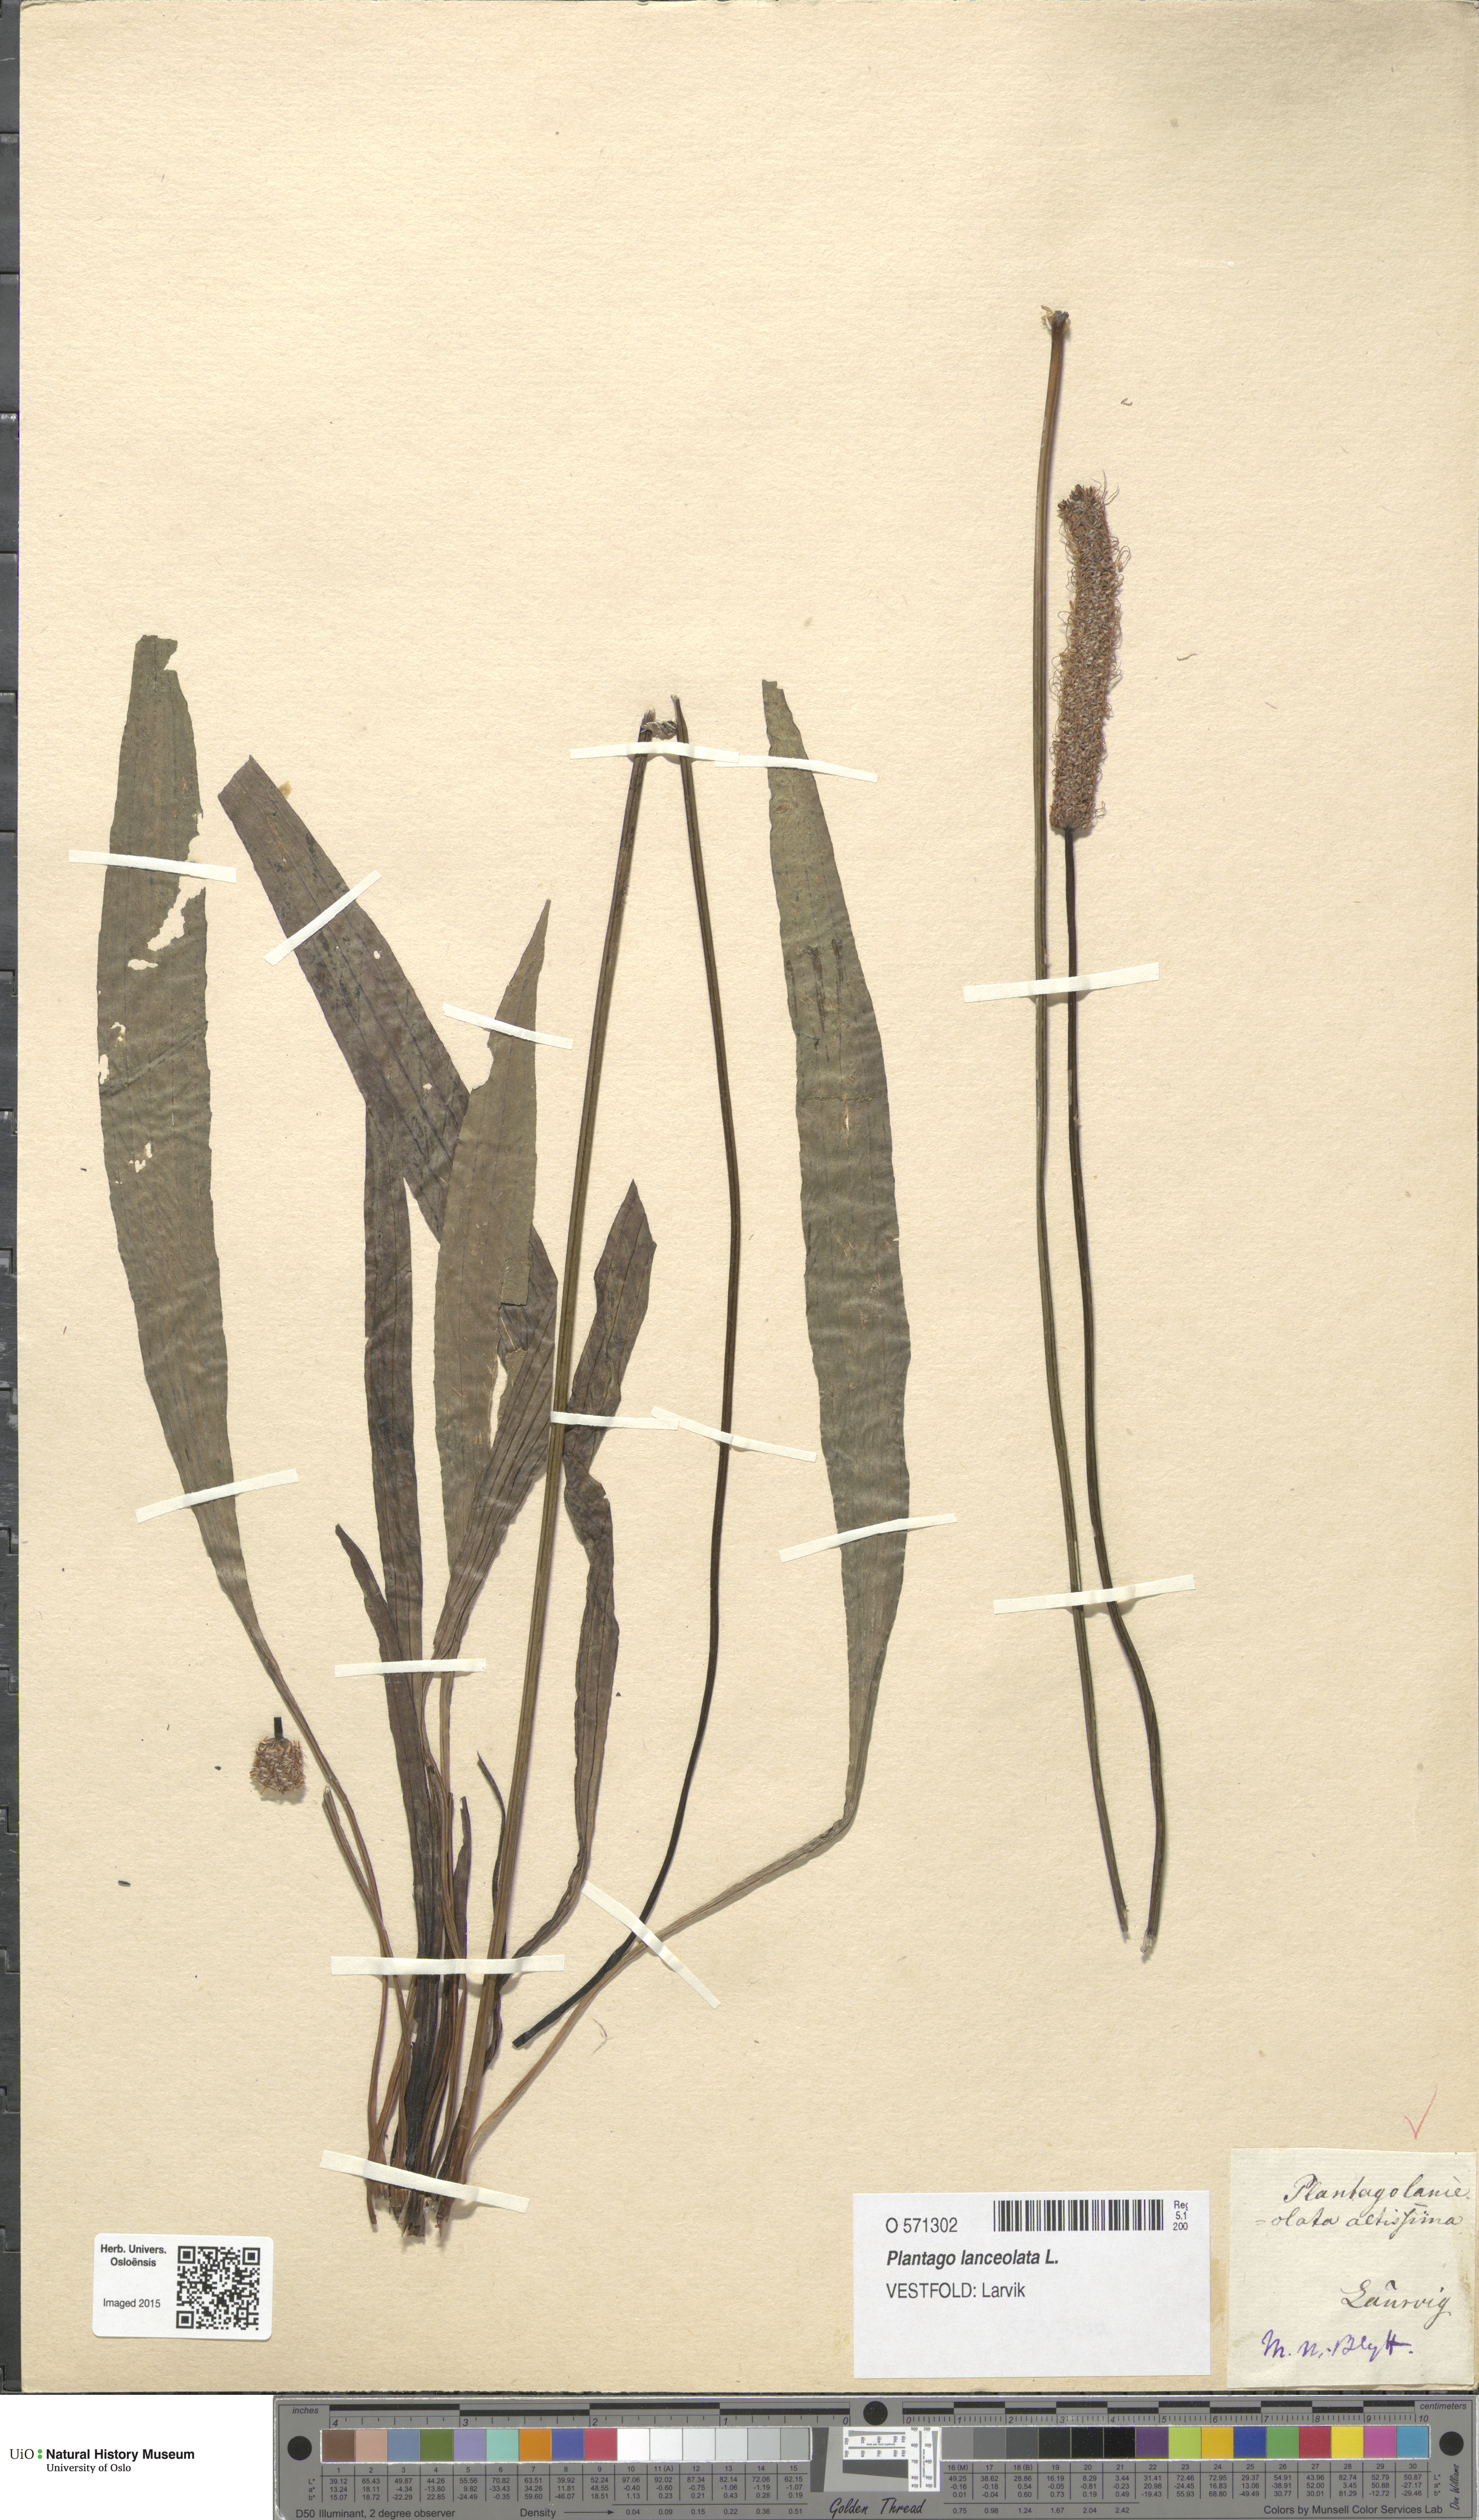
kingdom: Plantae
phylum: Tracheophyta
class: Magnoliopsida
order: Lamiales
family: Plantaginaceae
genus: Plantago
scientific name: Plantago lanceolata
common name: Ribwort plantain
